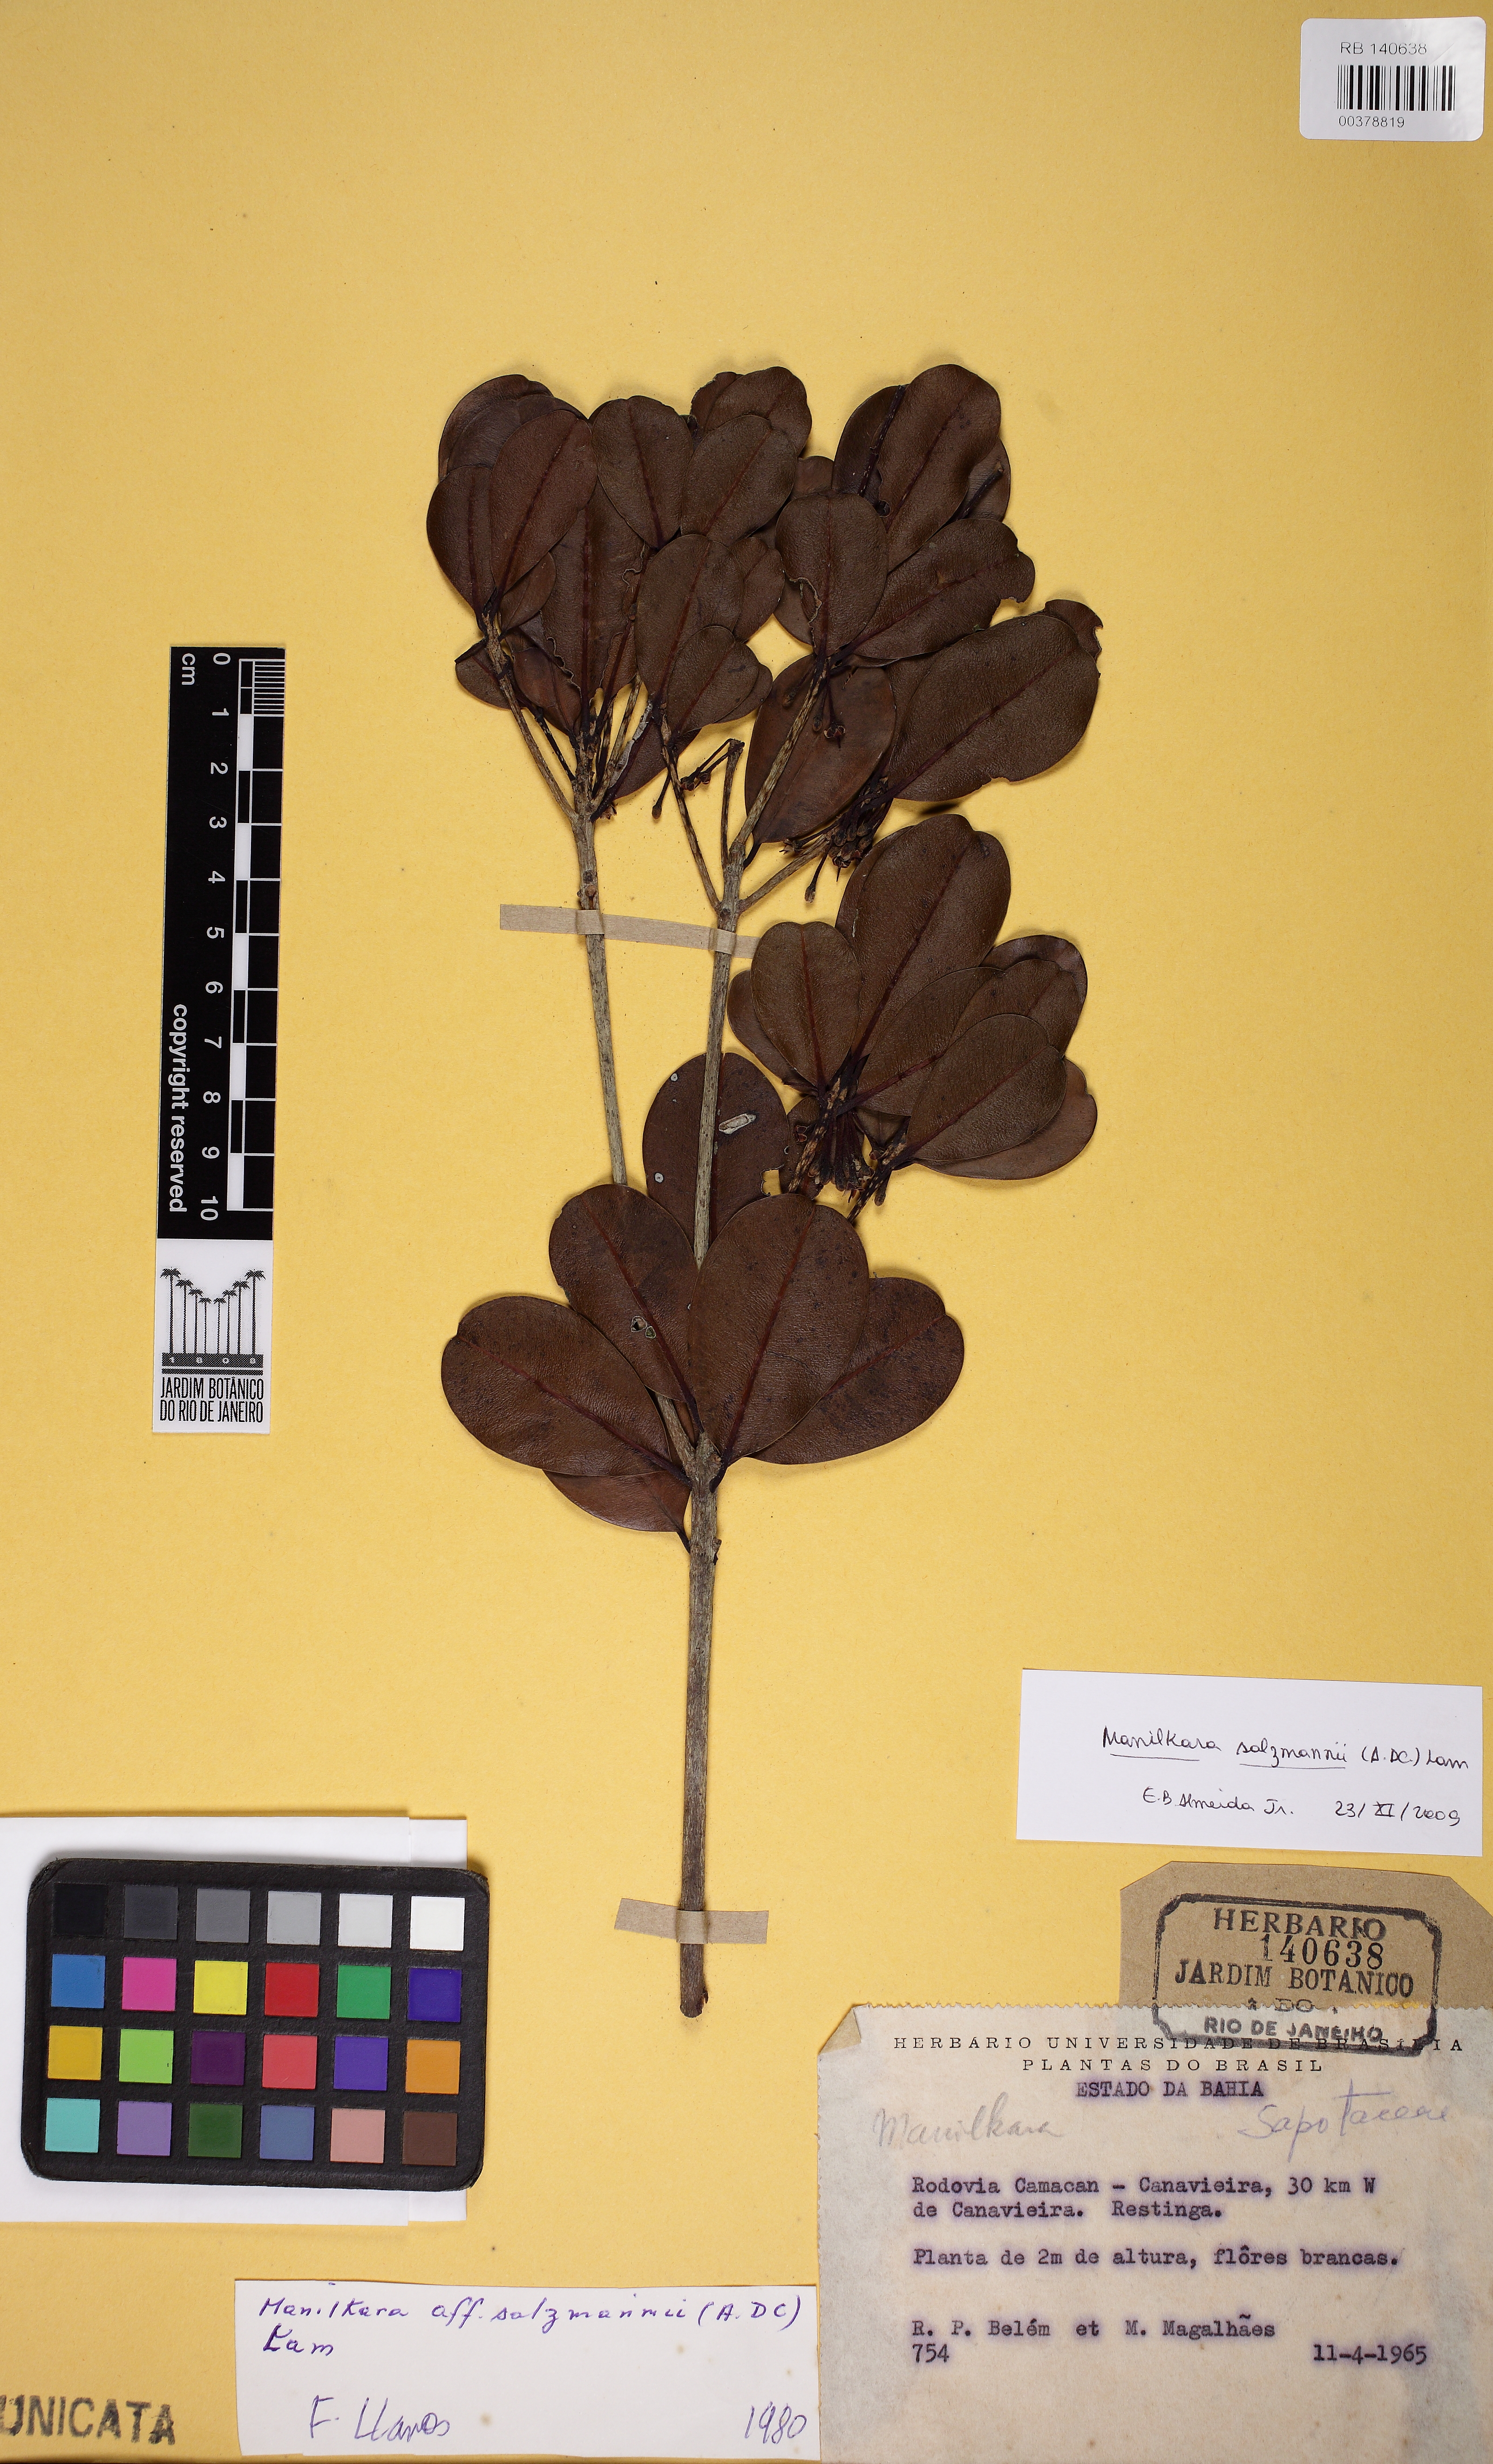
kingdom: Plantae
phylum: Tracheophyta
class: Magnoliopsida
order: Ericales
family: Sapotaceae
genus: Manilkara
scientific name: Manilkara salzmannii
